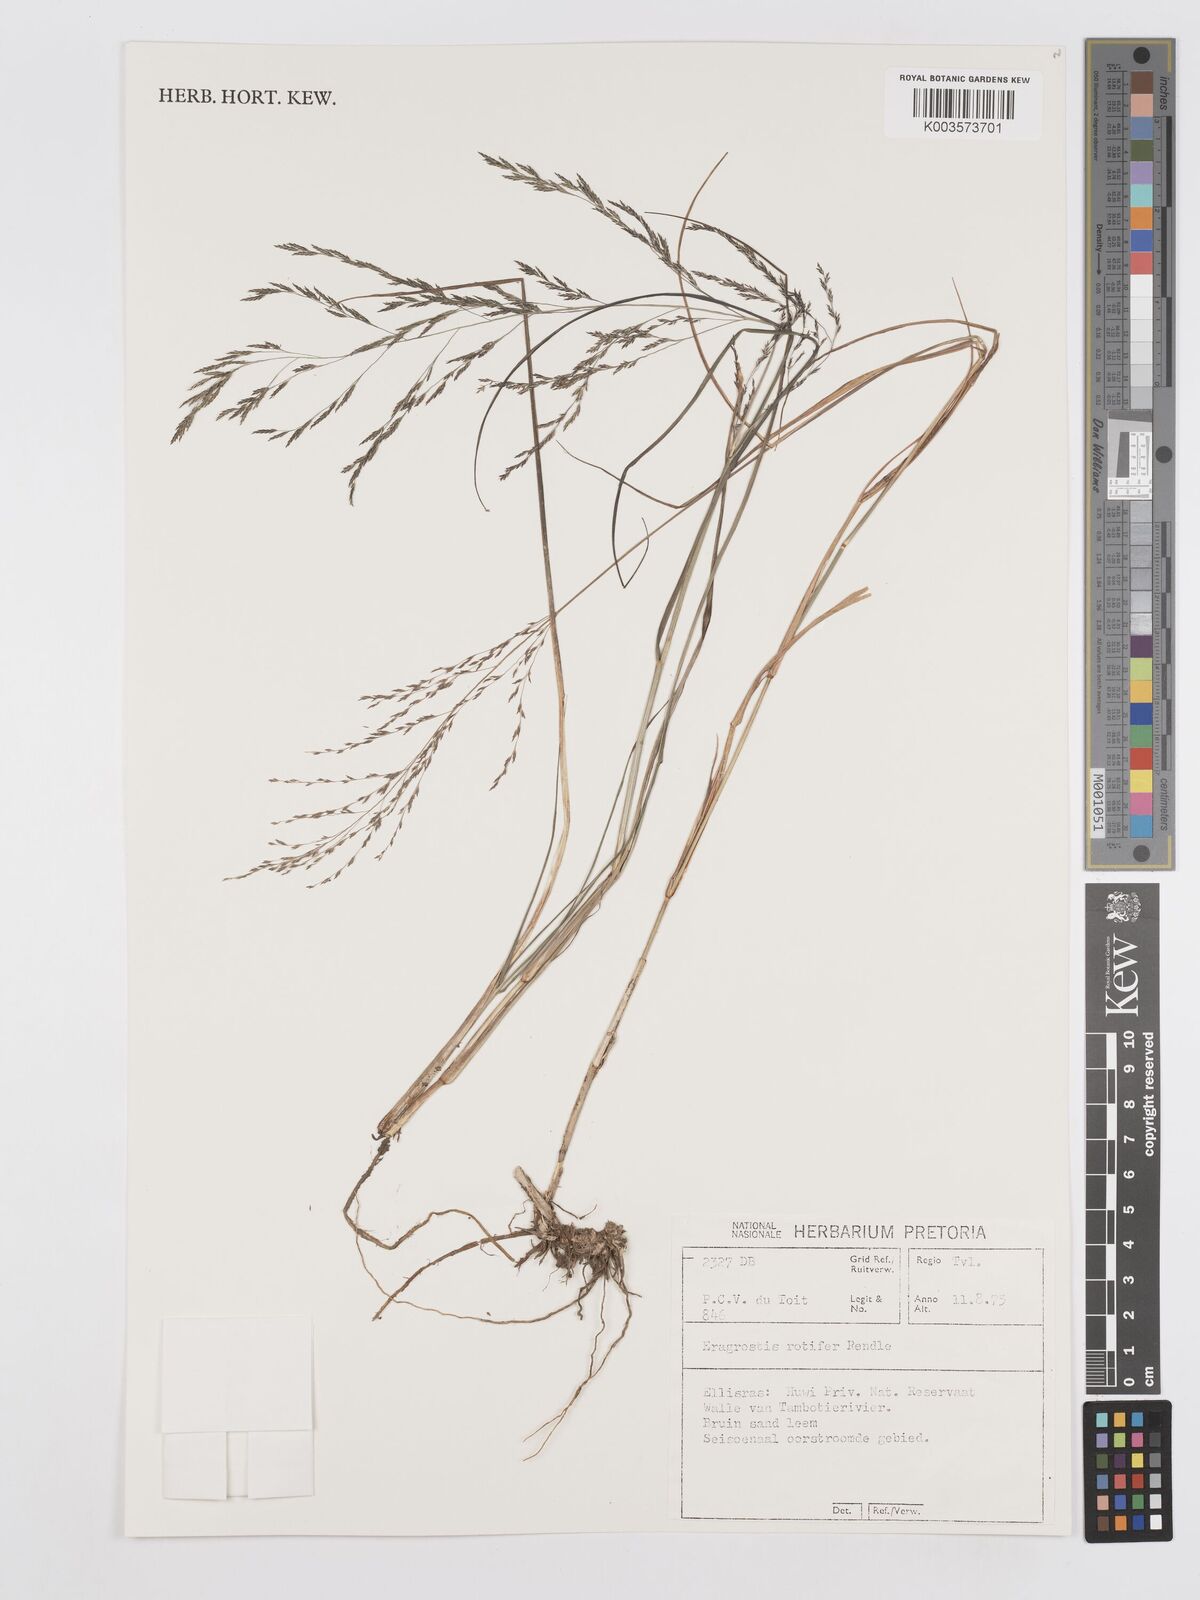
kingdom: Plantae
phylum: Tracheophyta
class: Liliopsida
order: Poales
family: Poaceae
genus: Eragrostis
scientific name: Eragrostis rotifer
